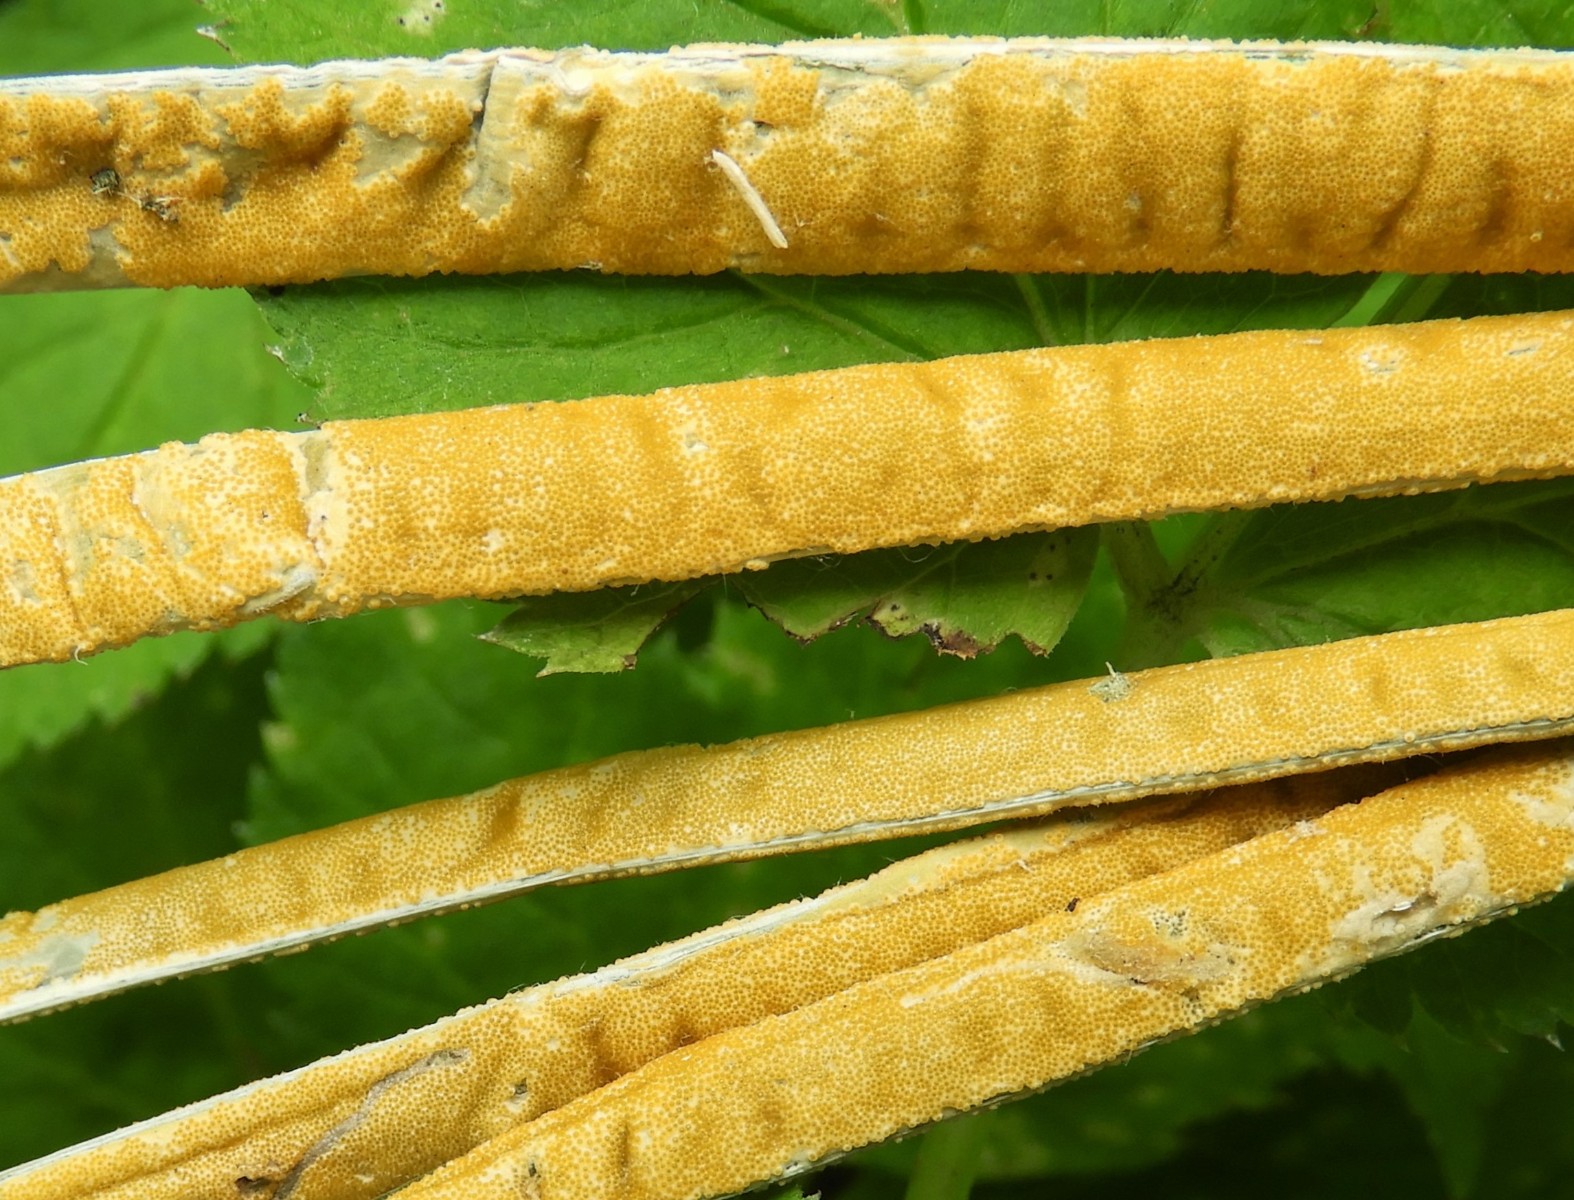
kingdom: Fungi
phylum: Ascomycota
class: Sordariomycetes
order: Hypocreales
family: Clavicipitaceae
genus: Epichloe
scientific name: Epichloe typhina
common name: almindelig kernerør
